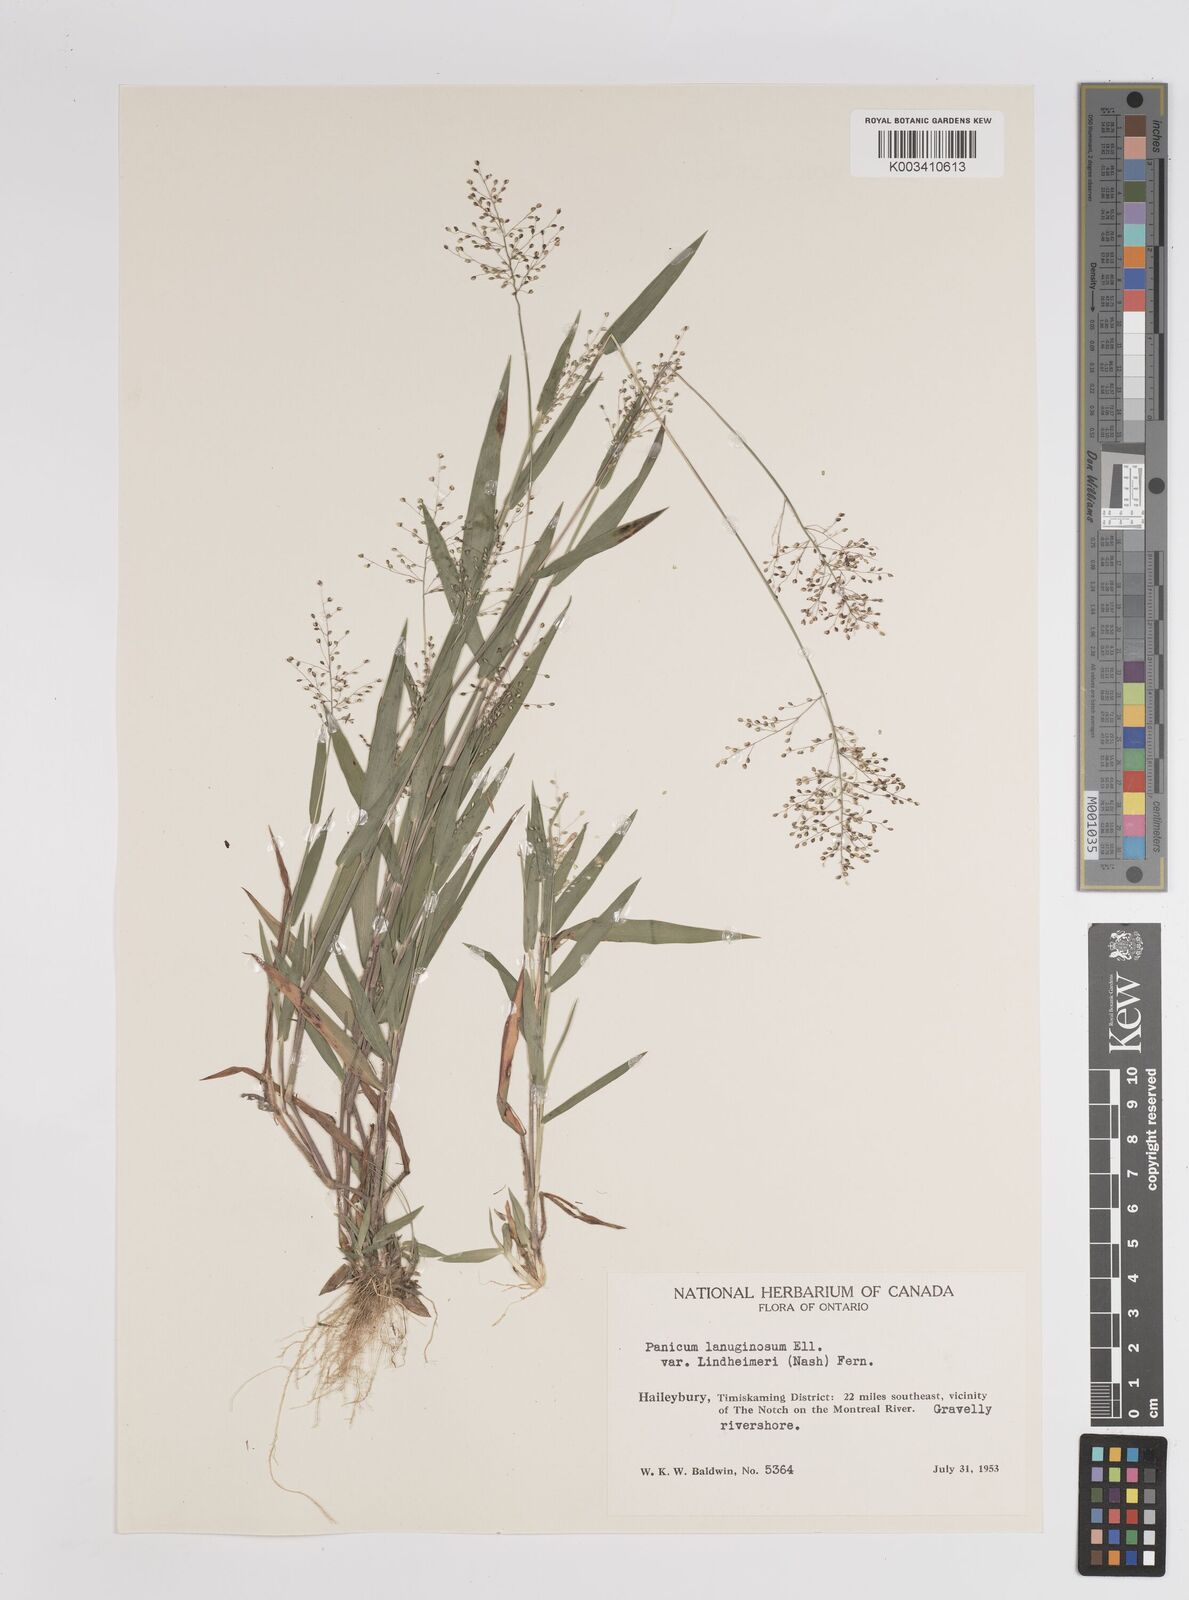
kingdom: Plantae
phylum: Tracheophyta
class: Liliopsida
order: Poales
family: Poaceae
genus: Dichanthelium
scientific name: Dichanthelium lanuginosum
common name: Woolly panicgrass
